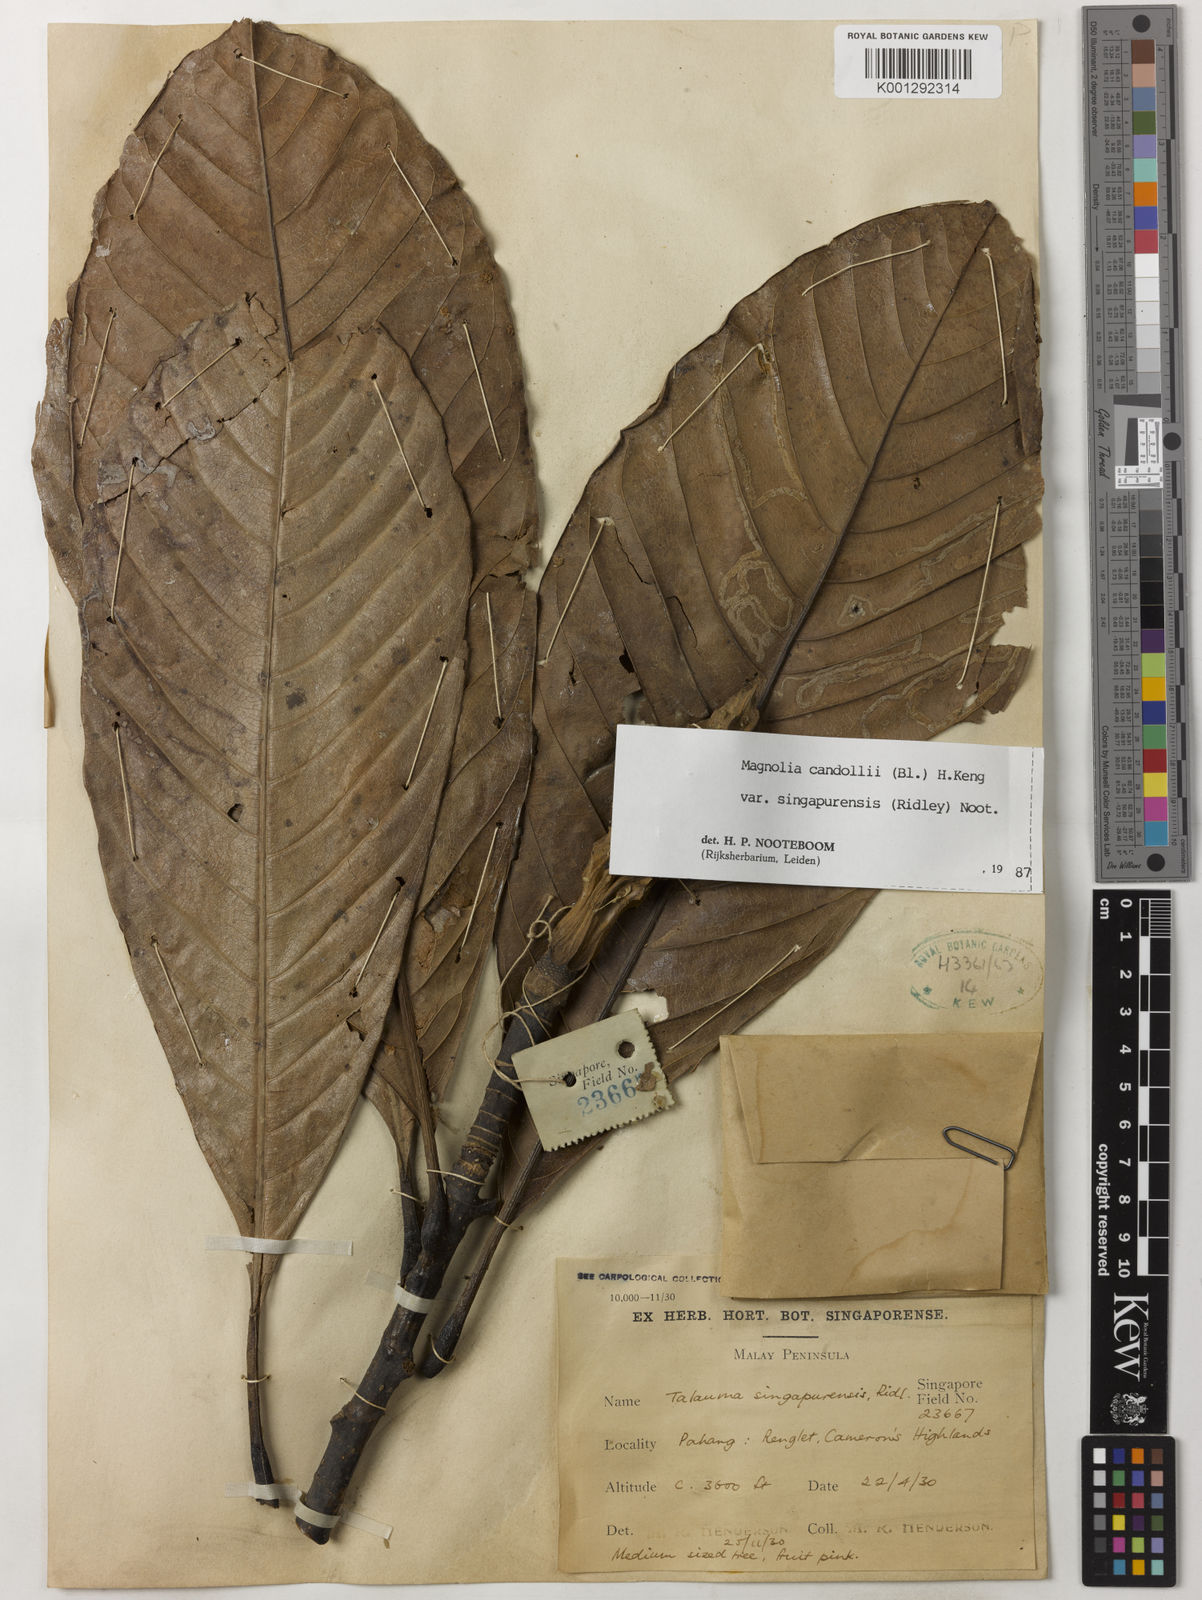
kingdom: Plantae
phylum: Tracheophyta
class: Magnoliopsida
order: Magnoliales
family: Magnoliaceae
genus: Magnolia
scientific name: Magnolia betongensis
